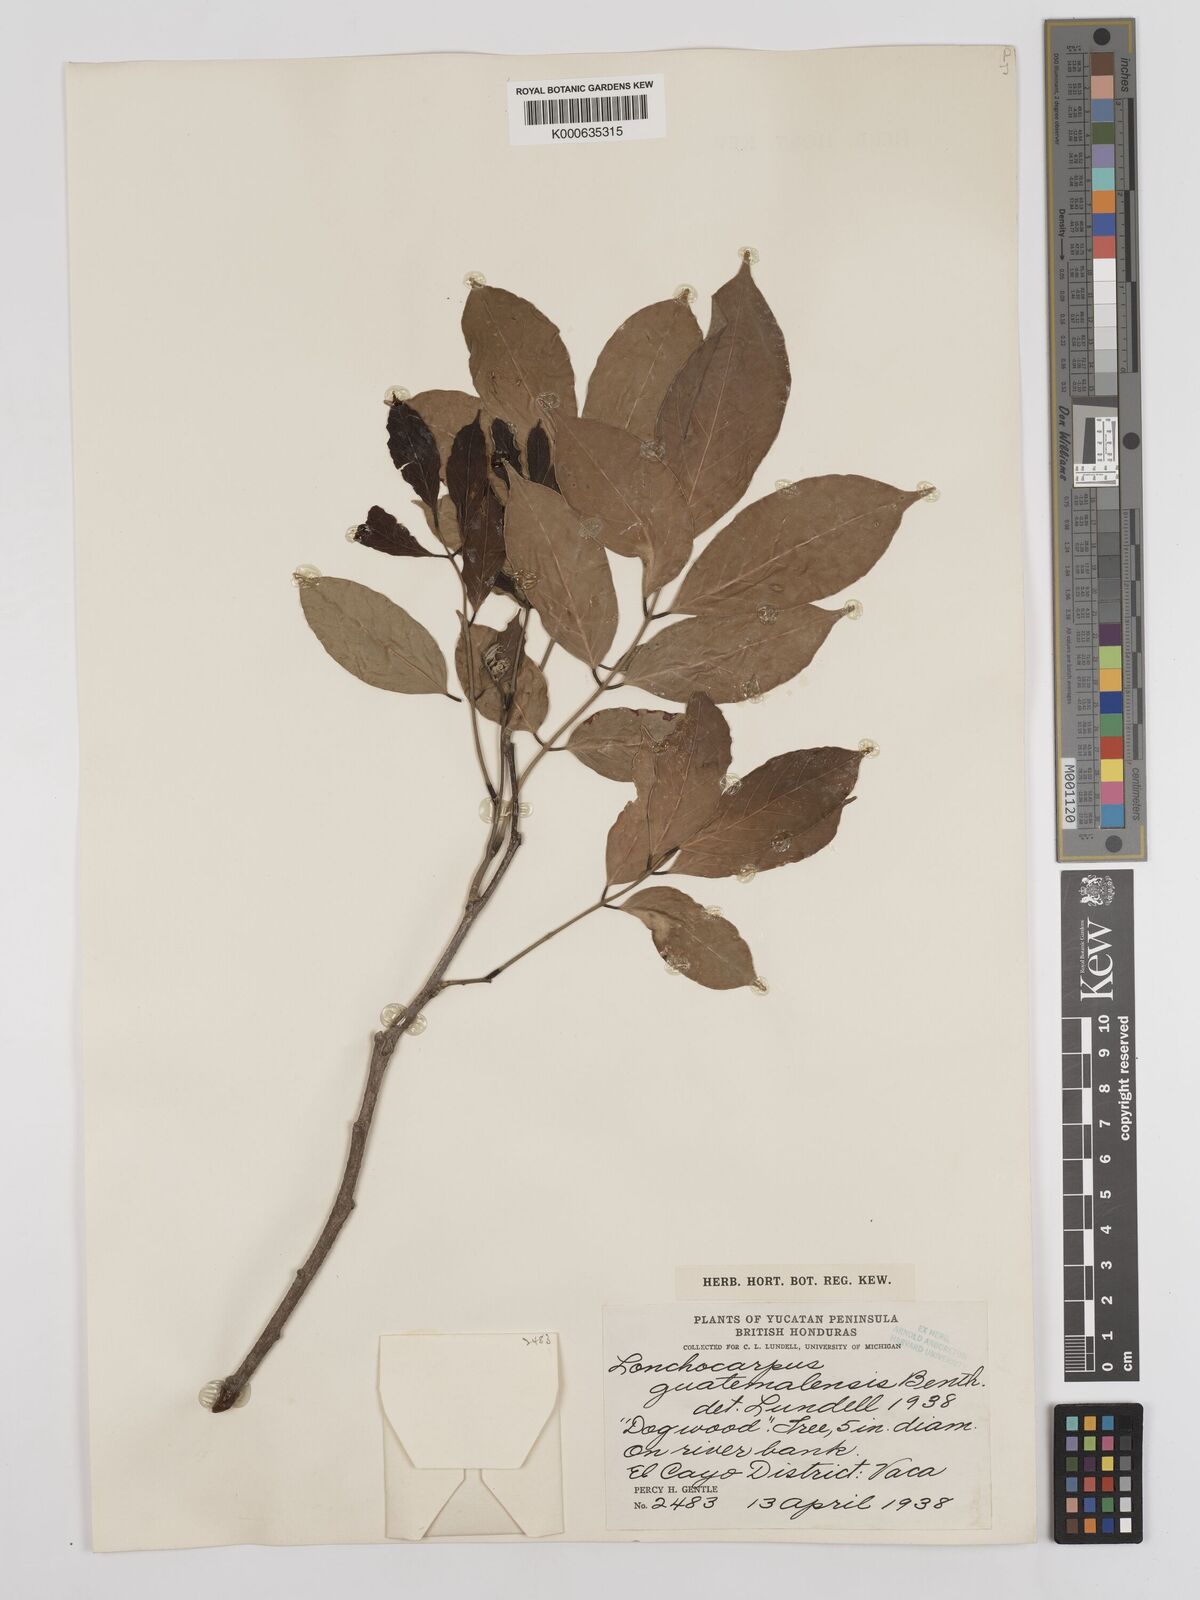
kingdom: Plantae
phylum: Tracheophyta
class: Magnoliopsida
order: Fabales
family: Fabaceae
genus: Lonchocarpus
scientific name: Lonchocarpus guatemalensis
